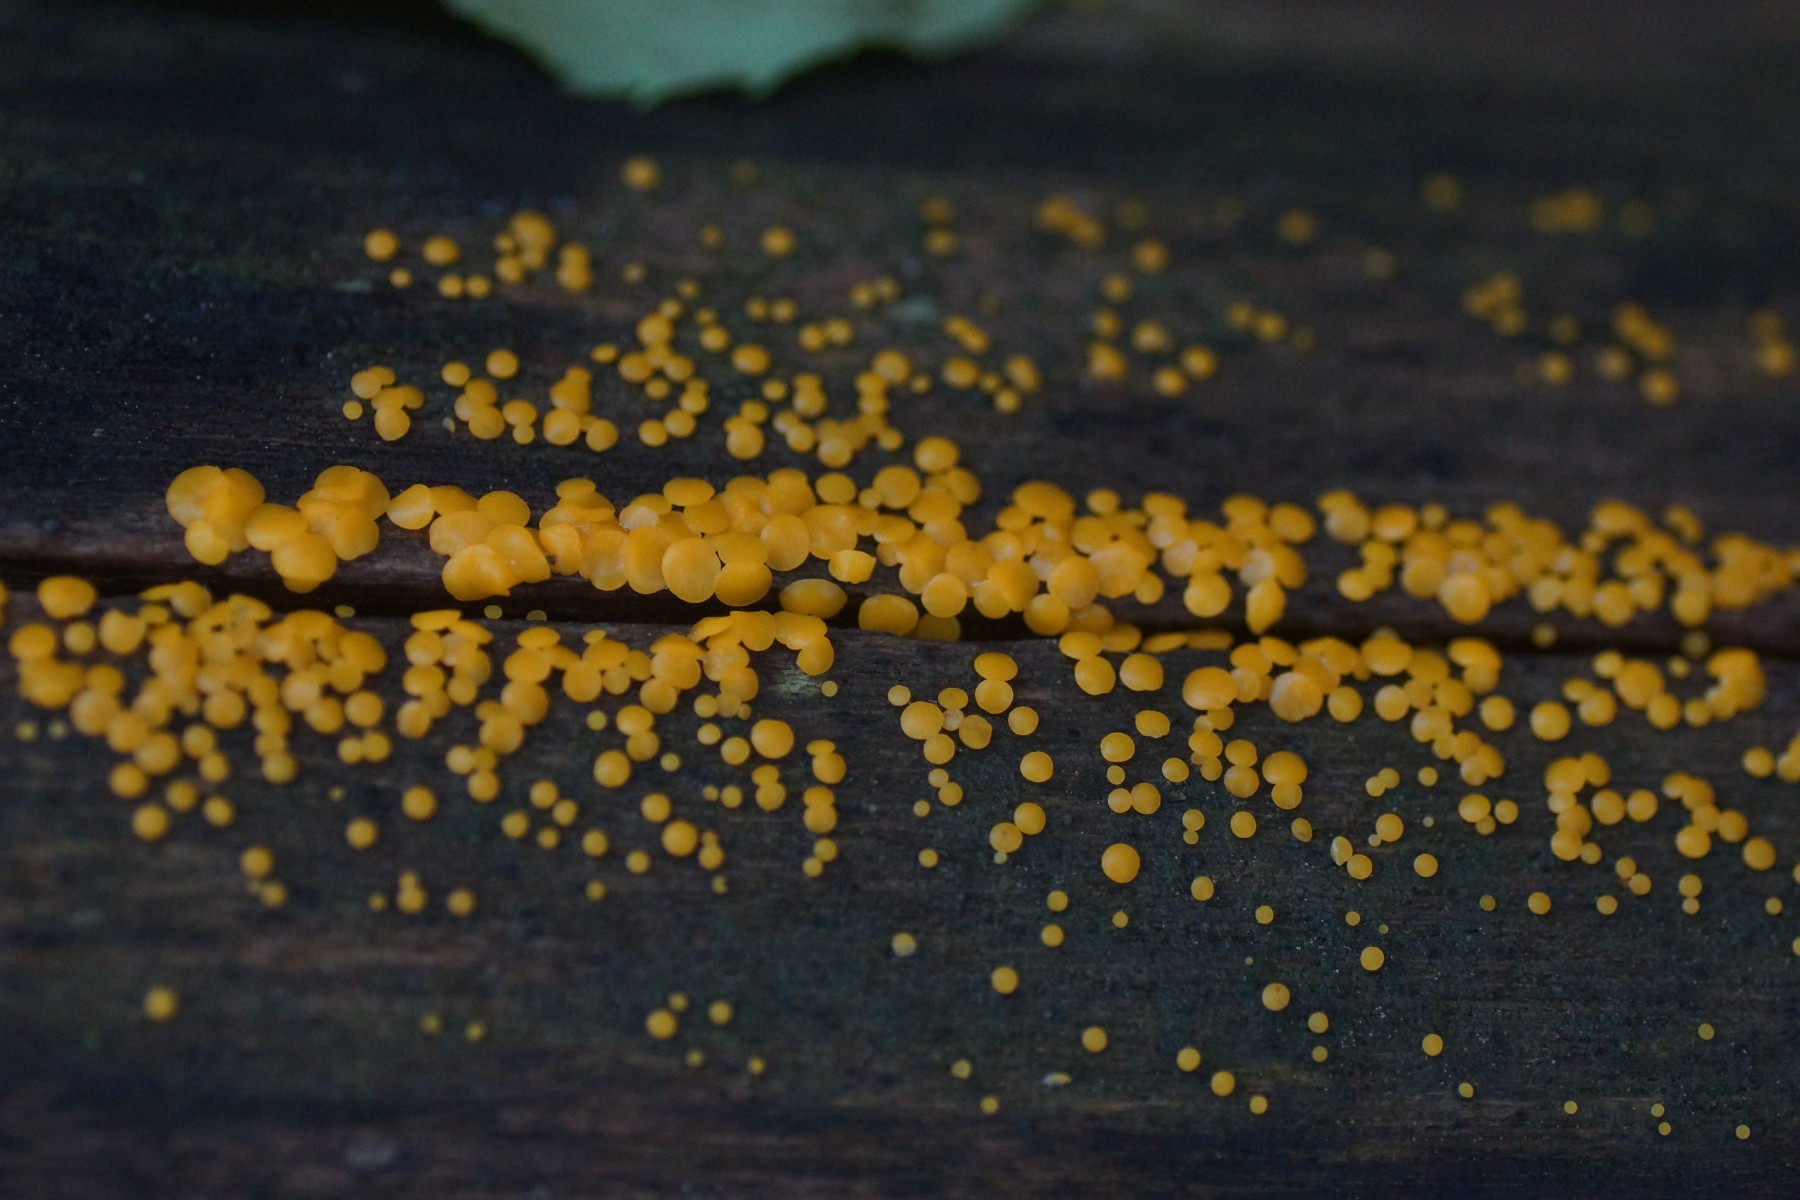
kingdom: Fungi
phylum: Ascomycota
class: Leotiomycetes
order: Helotiales
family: Pezizellaceae
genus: Calycina
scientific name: Calycina citrina
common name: almindelig gulskive
